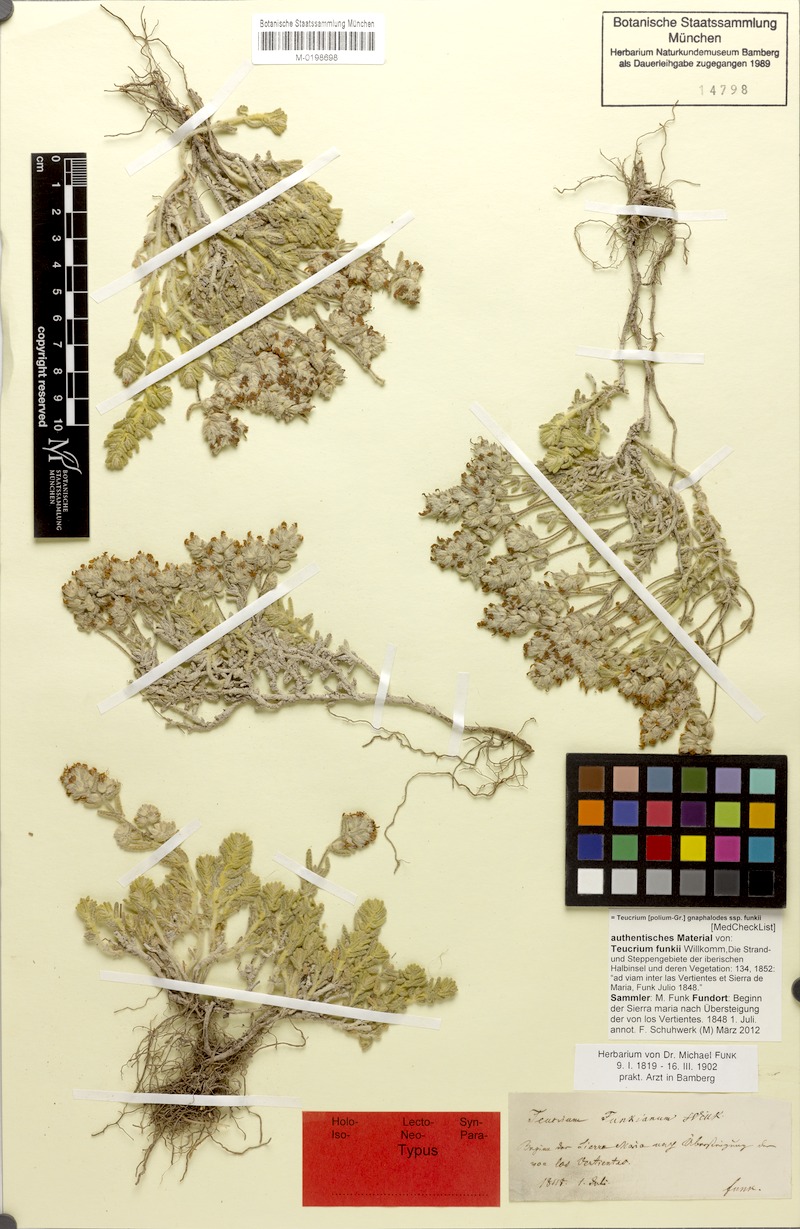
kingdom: Plantae
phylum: Tracheophyta
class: Magnoliopsida
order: Lamiales
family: Lamiaceae
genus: Teucrium
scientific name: Teucrium gnaphalodes
